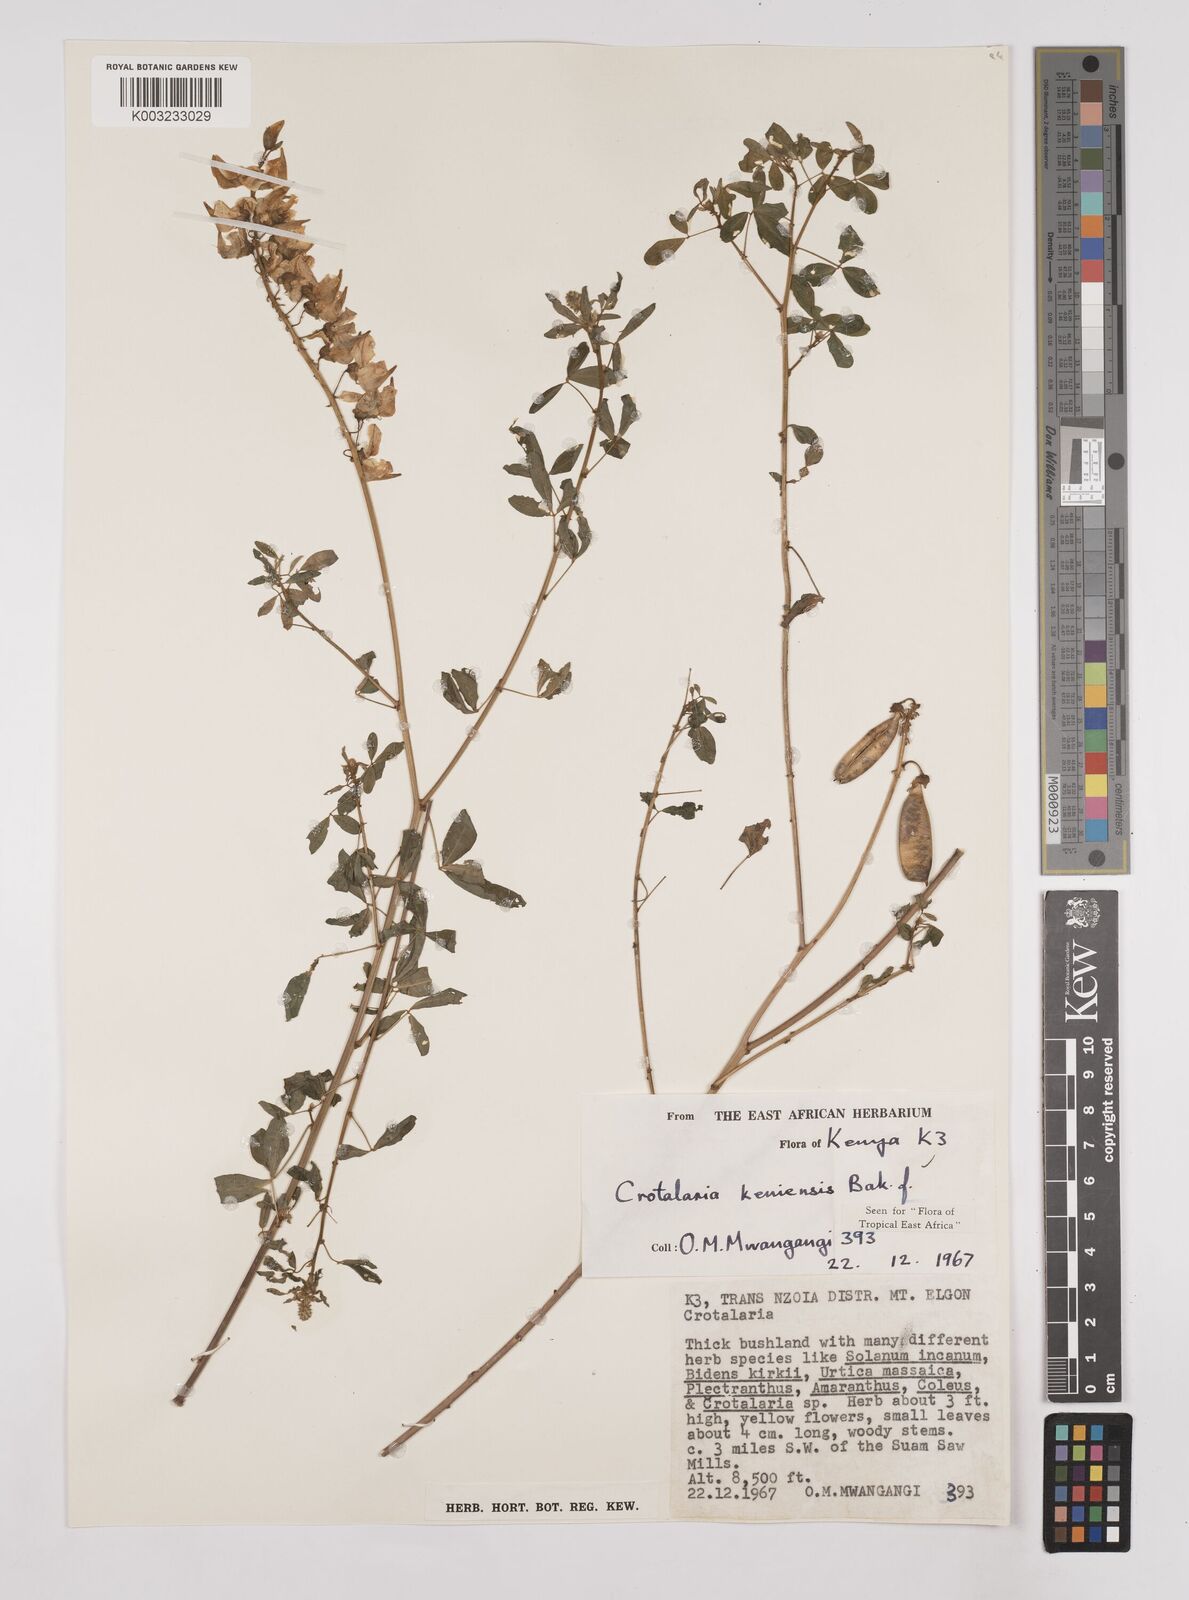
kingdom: Plantae
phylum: Tracheophyta
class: Magnoliopsida
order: Fabales
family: Fabaceae
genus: Crotalaria
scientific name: Crotalaria keniensis
